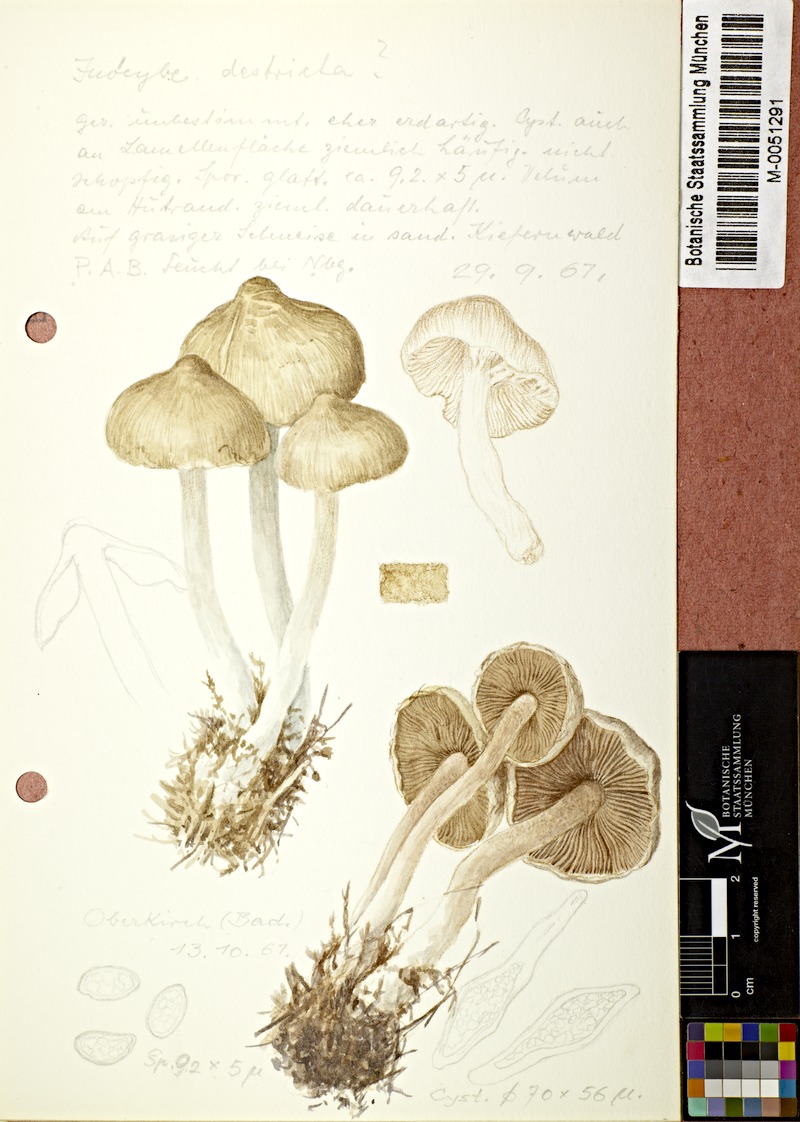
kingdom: Fungi
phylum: Basidiomycota
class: Agaricomycetes
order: Agaricales
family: Inocybaceae
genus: Pseudosperma
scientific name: Pseudosperma rimosum
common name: Split fibrecap
